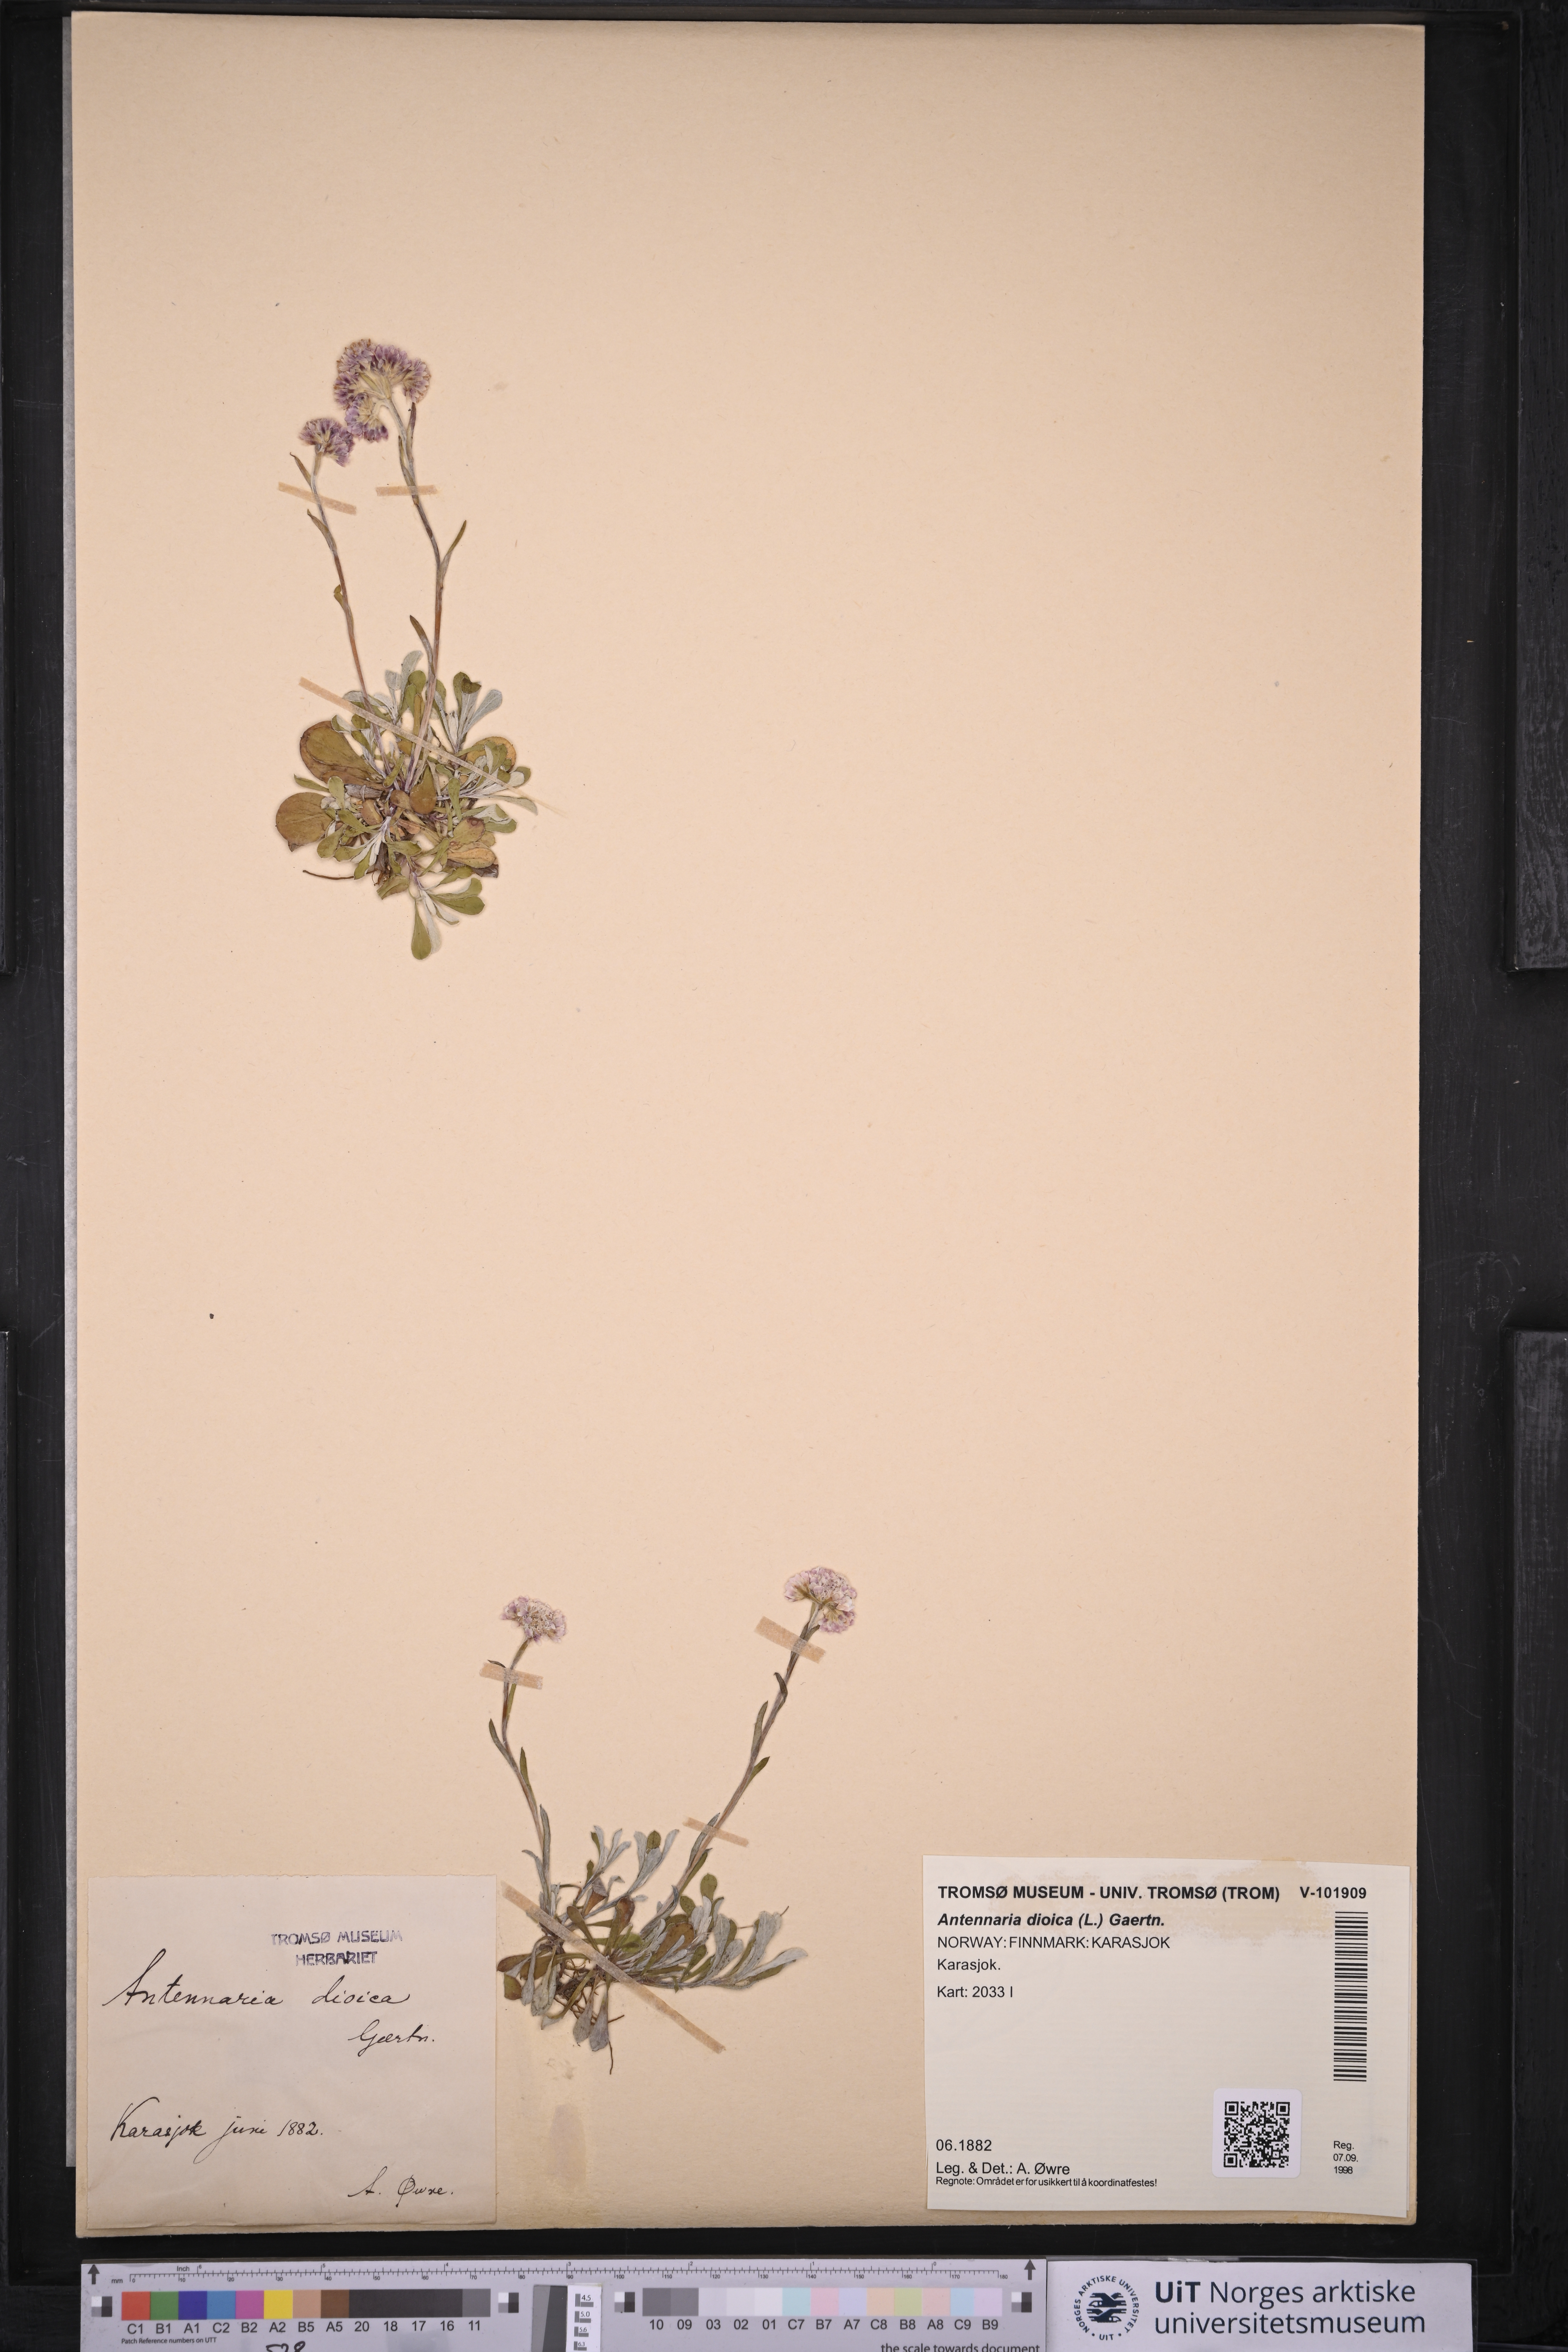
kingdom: Plantae
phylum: Tracheophyta
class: Magnoliopsida
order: Asterales
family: Asteraceae
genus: Antennaria
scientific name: Antennaria dioica
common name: Mountain everlasting
